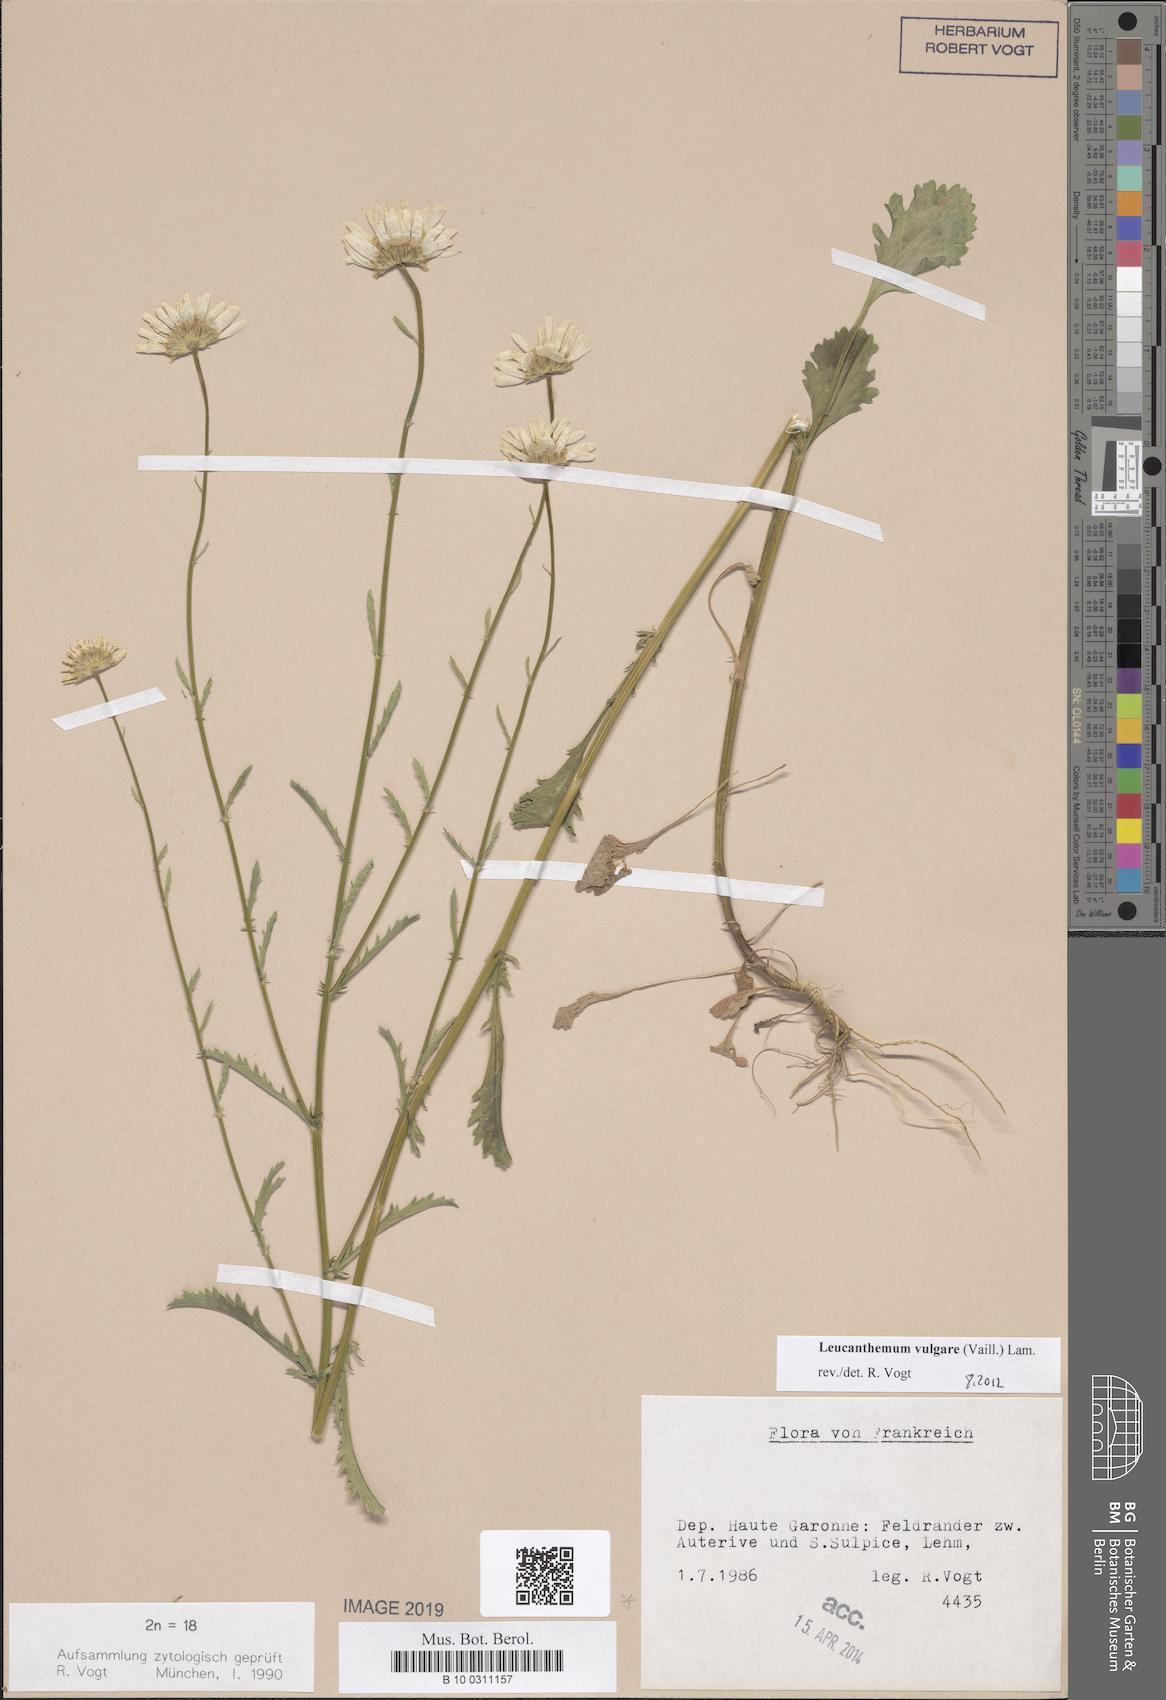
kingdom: Plantae
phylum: Tracheophyta
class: Magnoliopsida
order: Asterales
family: Asteraceae
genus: Leucanthemum
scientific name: Leucanthemum vulgare
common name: Oxeye daisy
